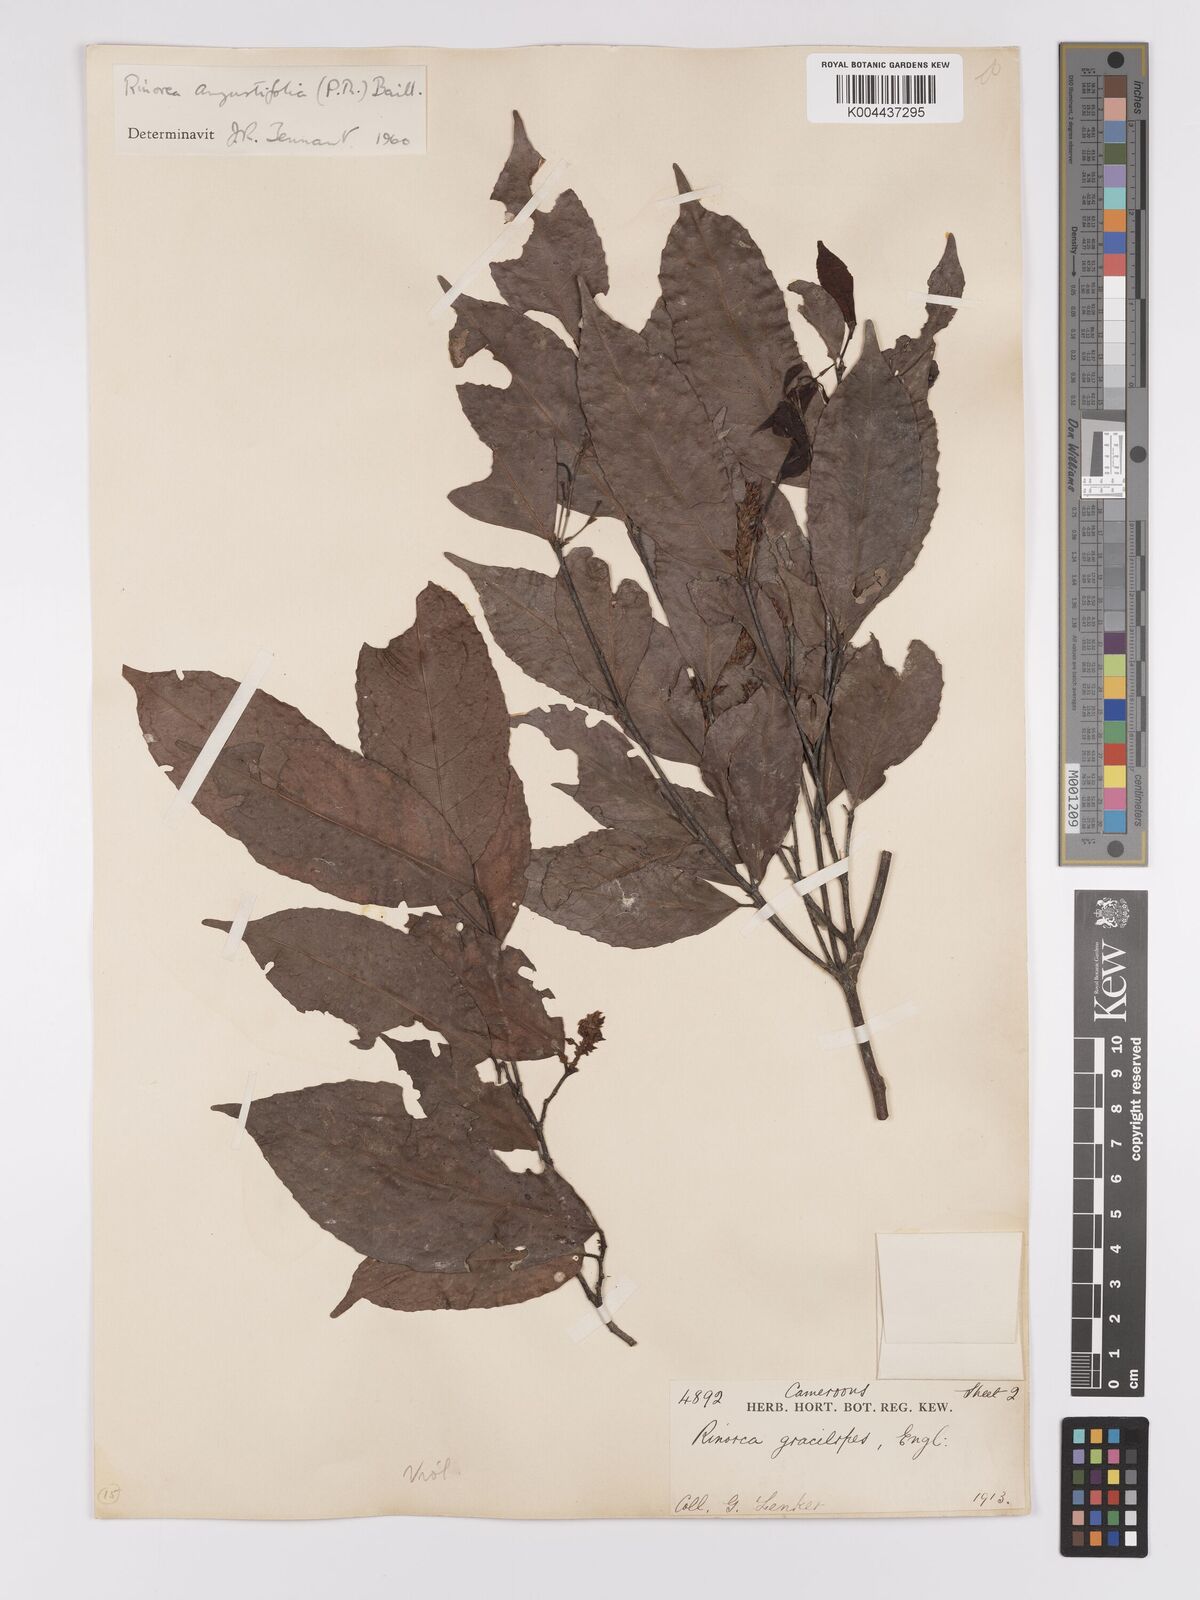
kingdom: Plantae
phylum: Tracheophyta
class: Magnoliopsida
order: Malpighiales
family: Violaceae
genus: Rinorea
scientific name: Rinorea angustifolia
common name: White violet-bush
